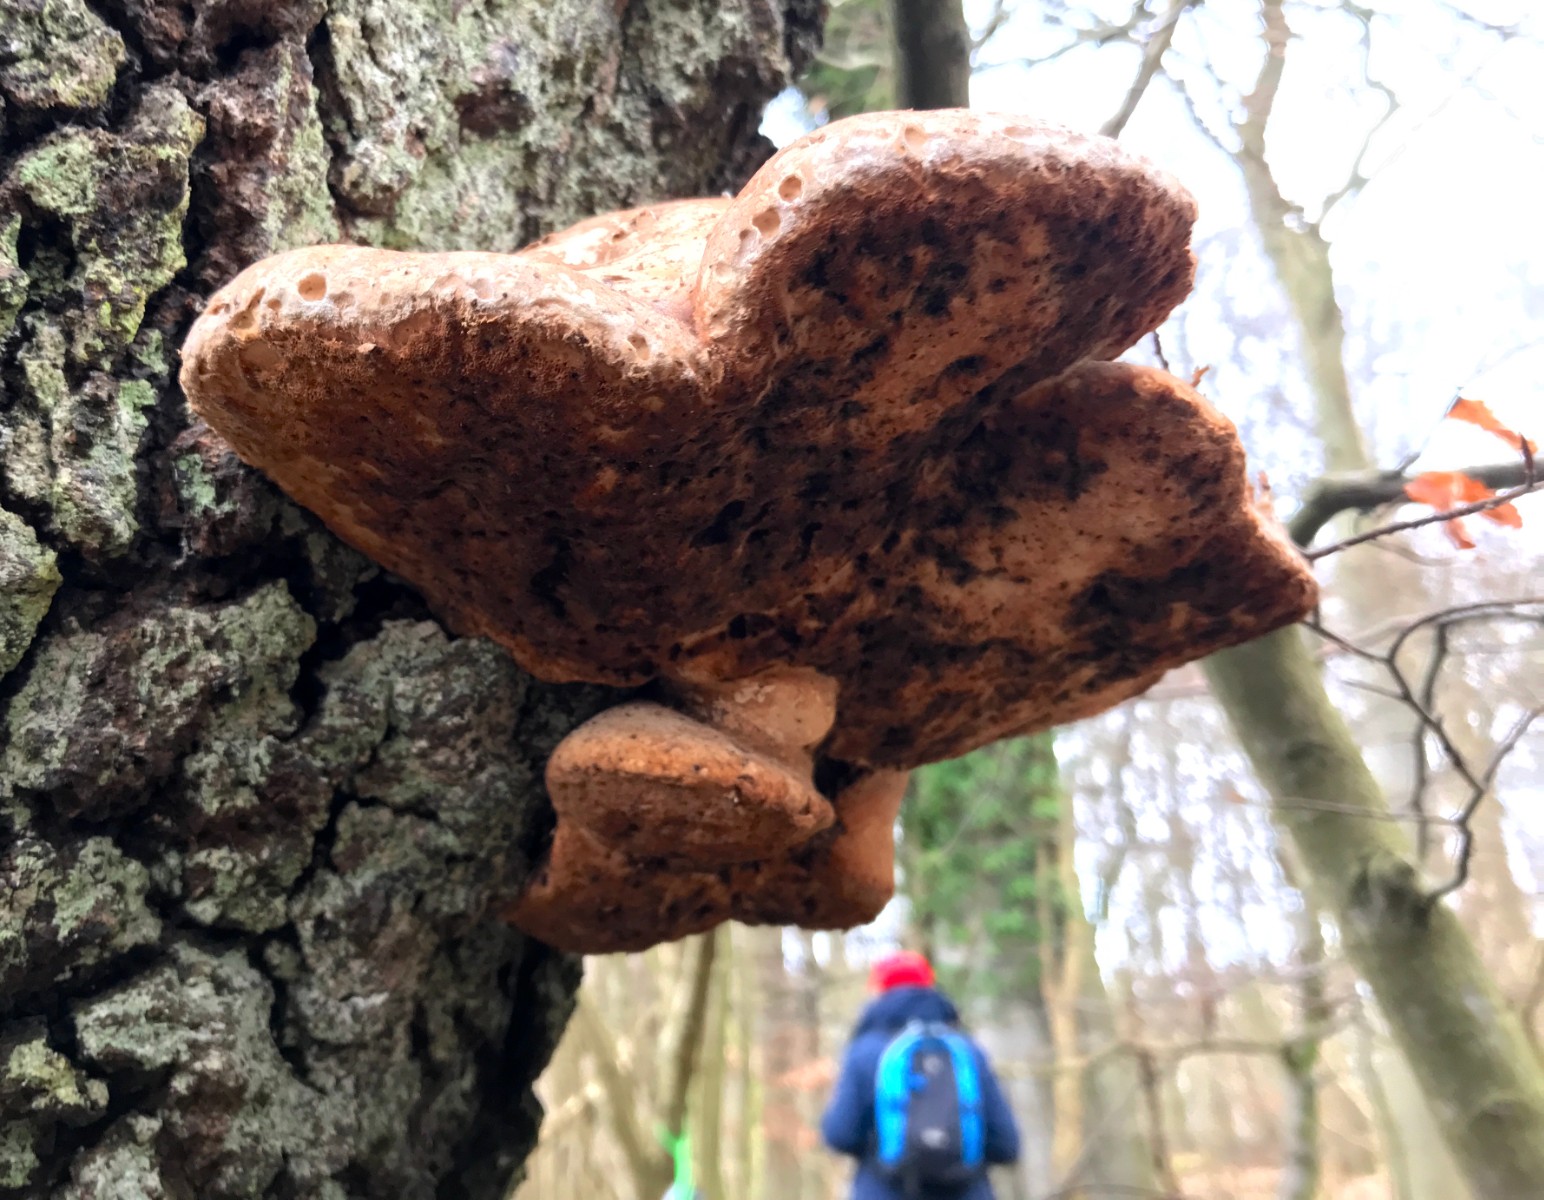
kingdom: Fungi
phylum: Basidiomycota
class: Agaricomycetes
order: Polyporales
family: Fomitopsidaceae
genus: Fomitopsis
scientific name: Fomitopsis betulina
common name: birkeporesvamp
